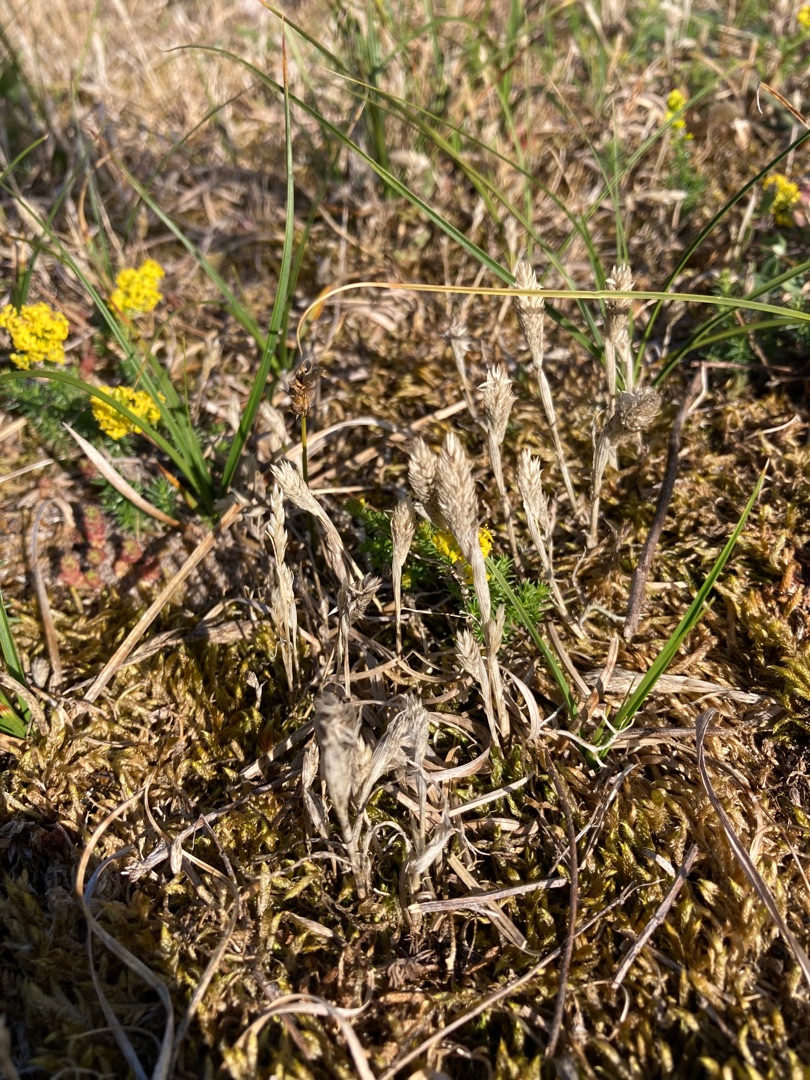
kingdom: Plantae
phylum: Tracheophyta
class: Liliopsida
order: Poales
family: Poaceae
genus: Phleum
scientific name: Phleum arenarium
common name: Sand-rottehale
